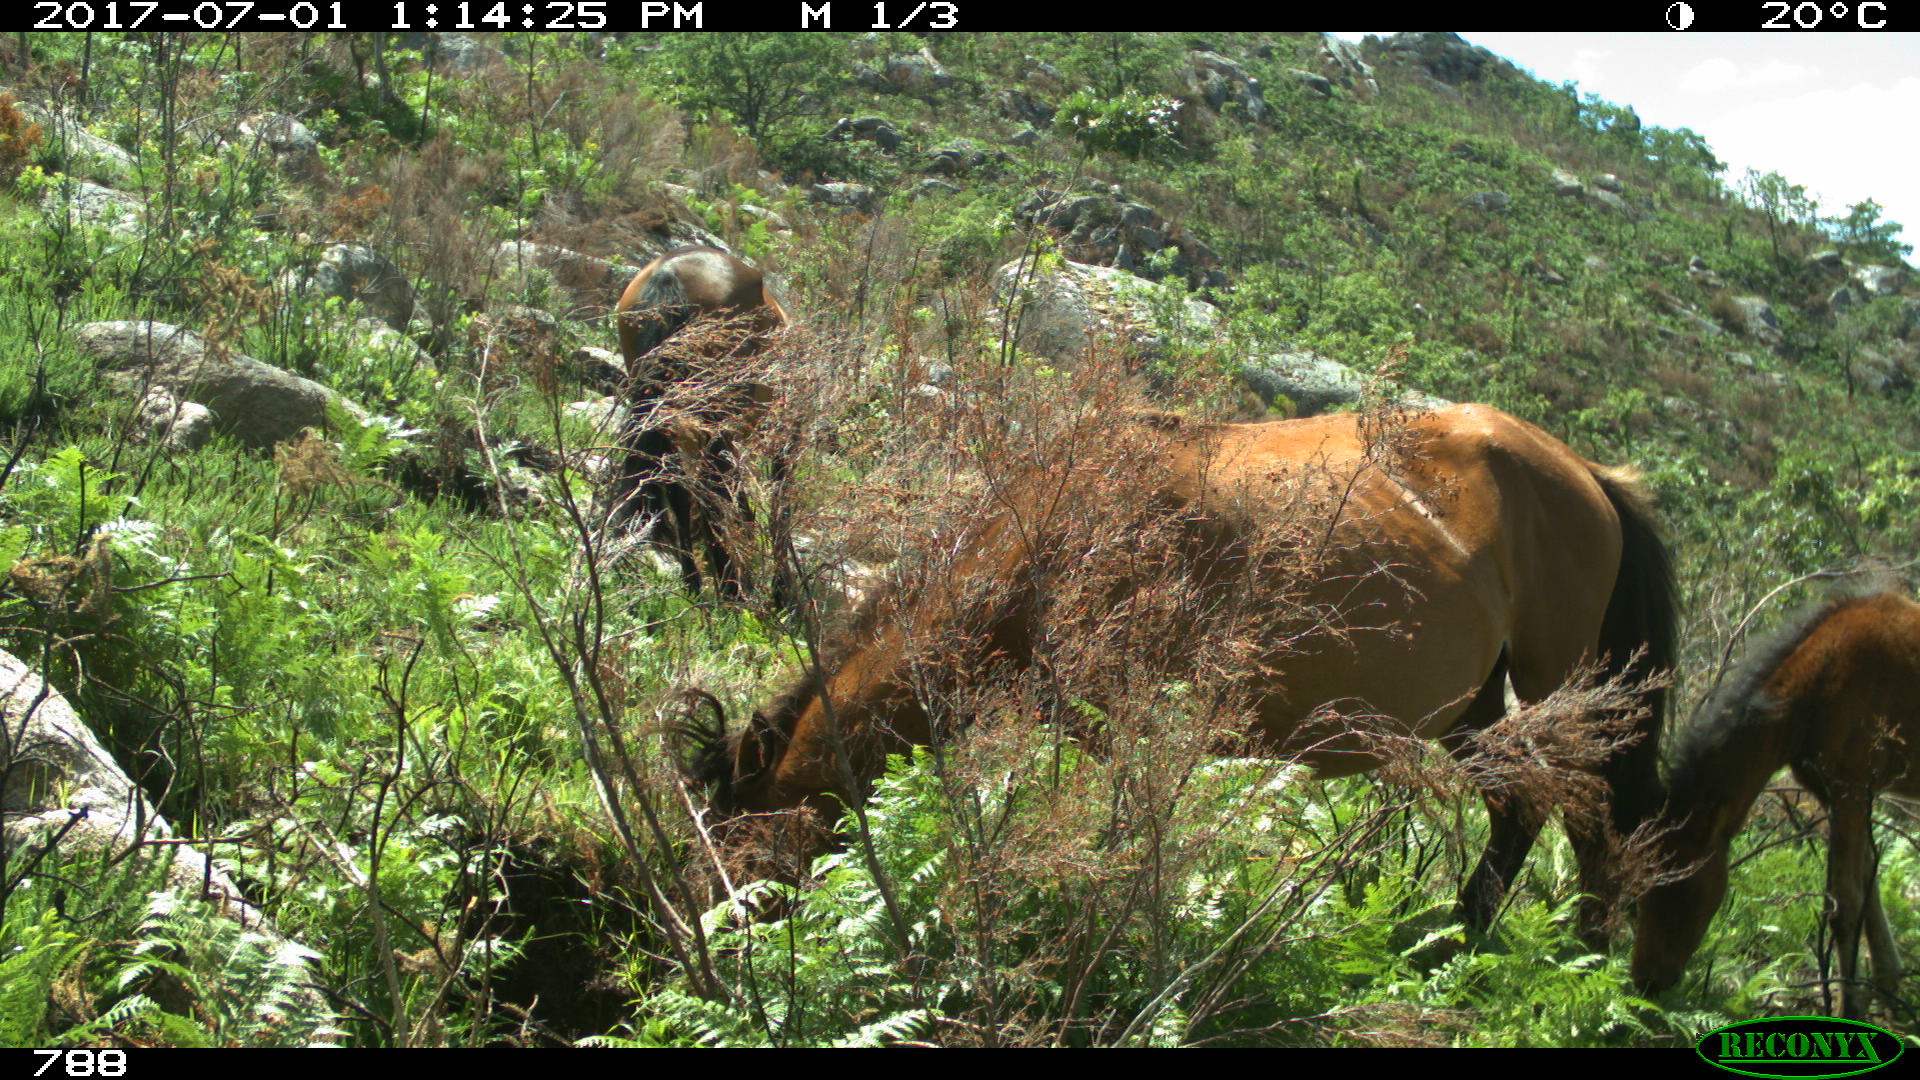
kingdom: Animalia
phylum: Chordata
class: Mammalia
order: Perissodactyla
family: Equidae
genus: Equus
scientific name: Equus caballus
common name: Horse
